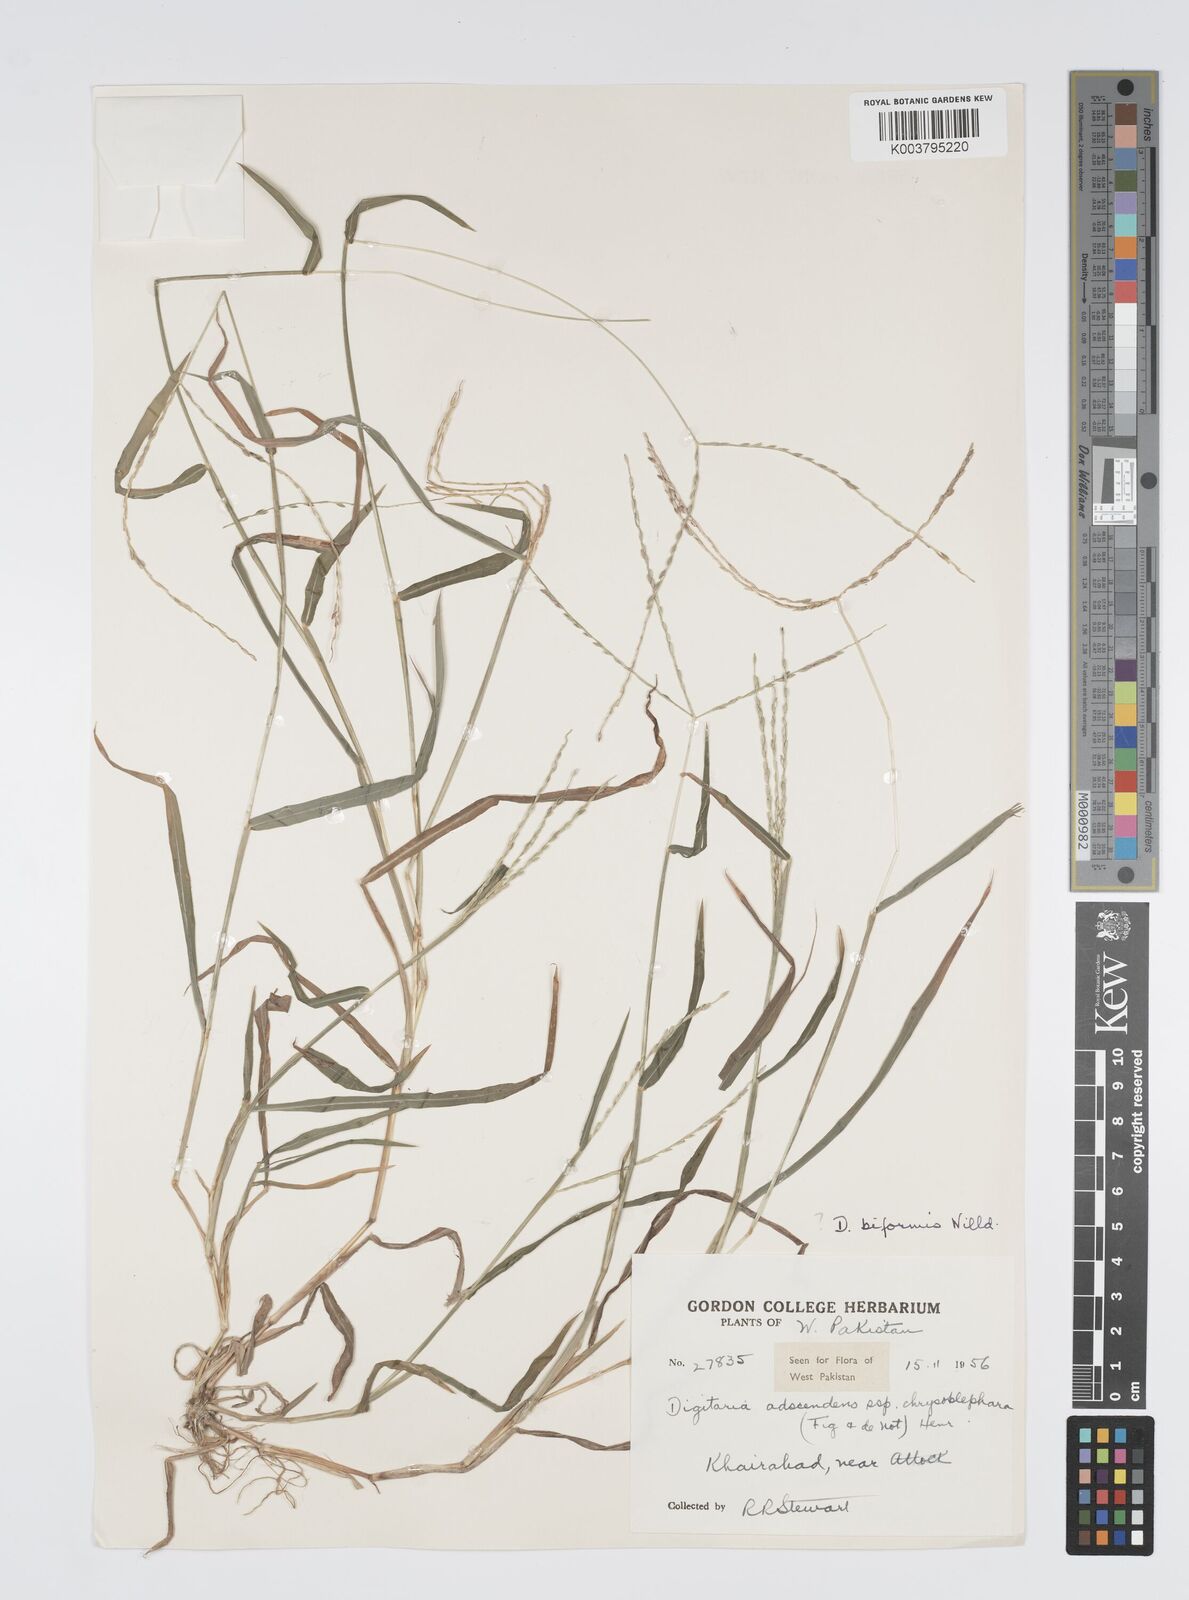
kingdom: Plantae
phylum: Tracheophyta
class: Liliopsida
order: Poales
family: Poaceae
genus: Digitaria
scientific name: Digitaria ciliaris
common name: Tropical finger-grass
